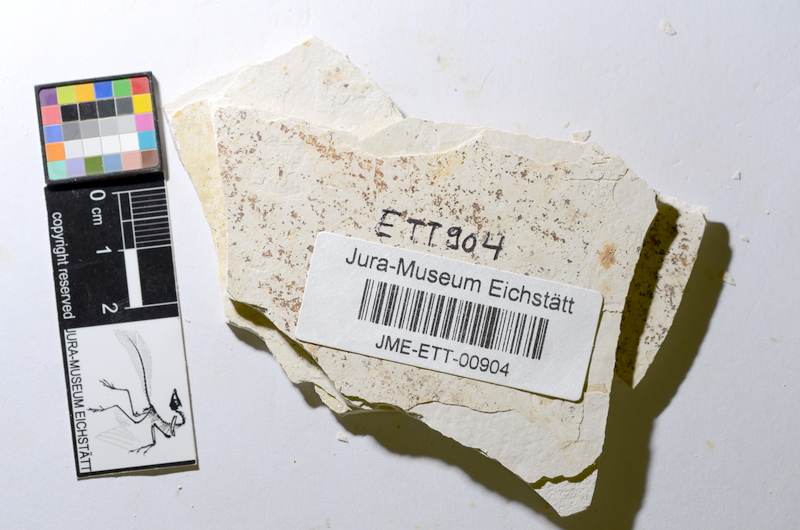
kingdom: Animalia
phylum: Chordata
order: Salmoniformes
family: Orthogonikleithridae
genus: Orthogonikleithrus
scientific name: Orthogonikleithrus hoelli
